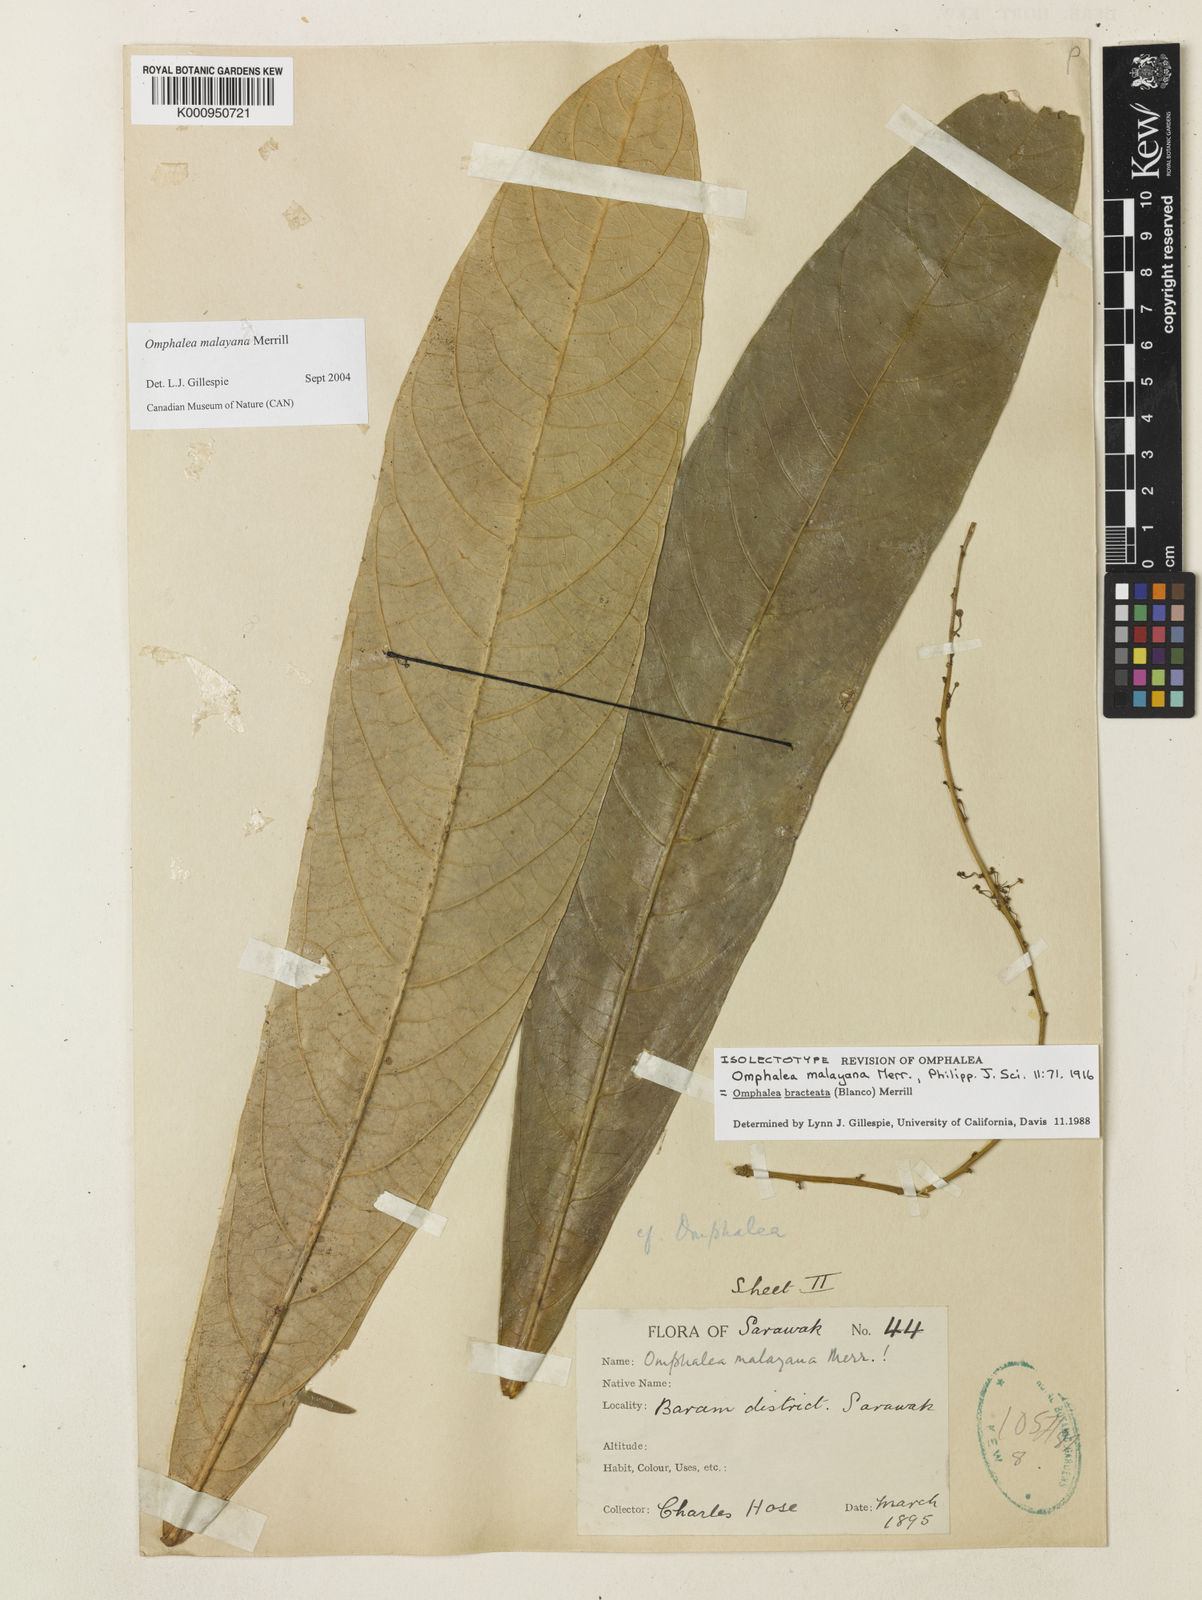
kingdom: Plantae
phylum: Tracheophyta
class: Magnoliopsida
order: Malpighiales
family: Euphorbiaceae
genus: Omphalea
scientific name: Omphalea malayana
